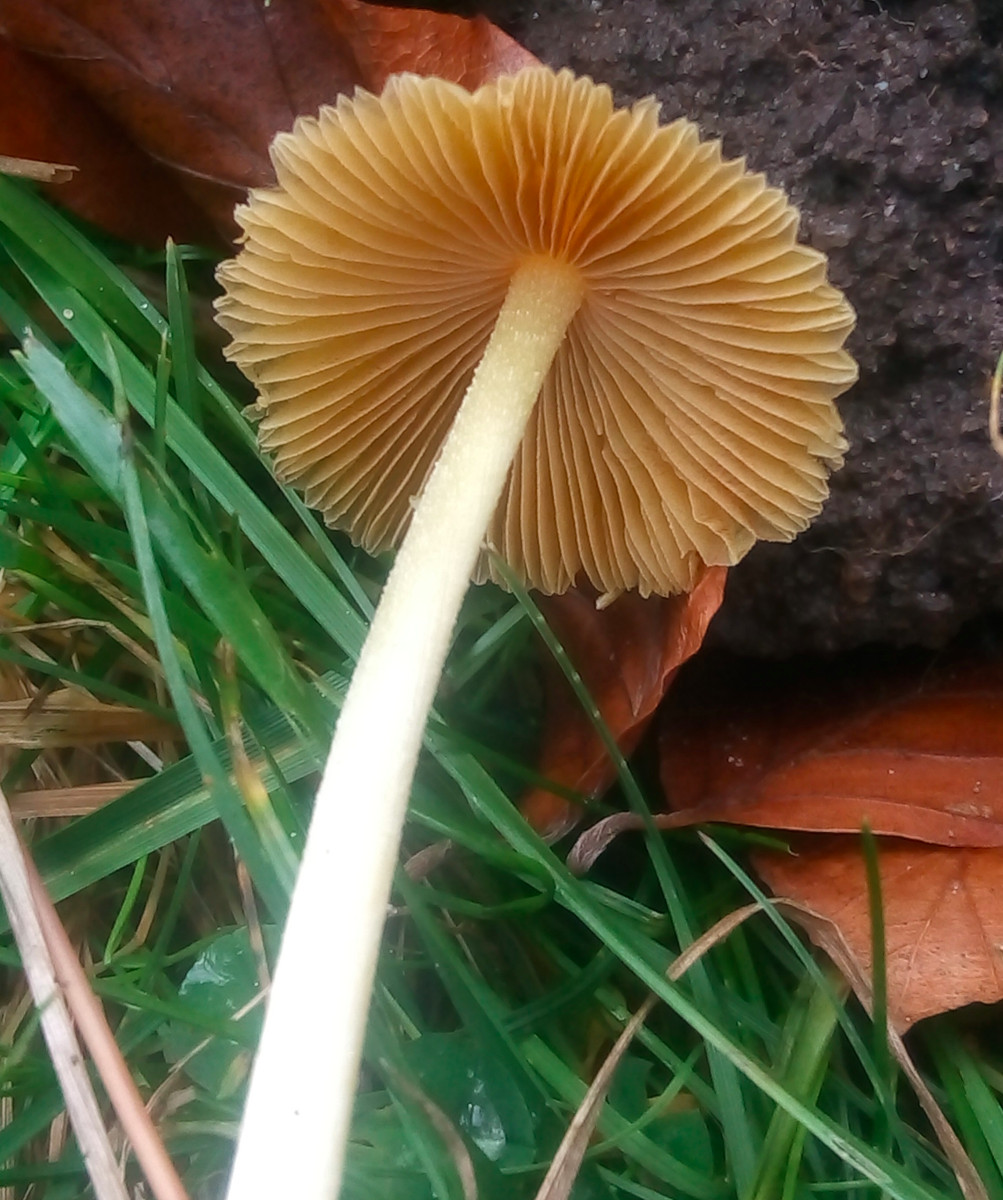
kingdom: Fungi
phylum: Basidiomycota
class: Agaricomycetes
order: Agaricales
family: Bolbitiaceae
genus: Bolbitius
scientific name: Bolbitius titubans
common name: almindelig gulhat
